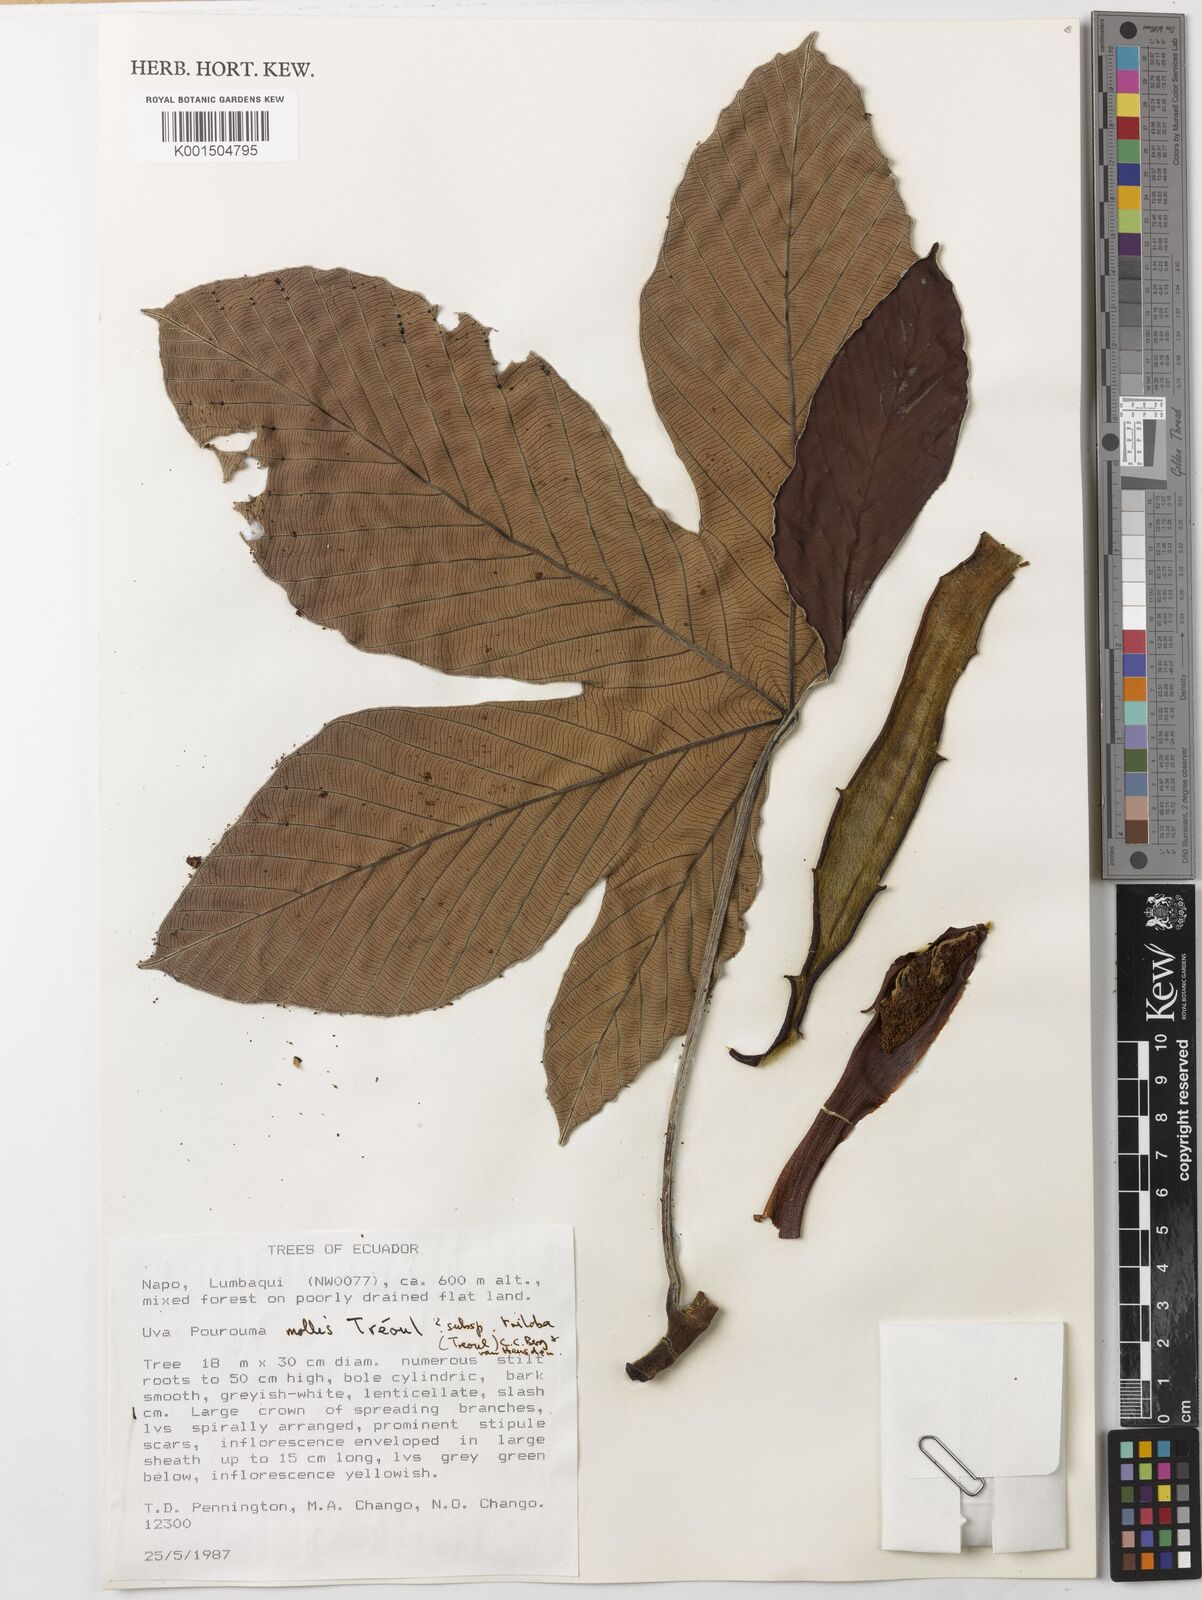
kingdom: Plantae
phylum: Tracheophyta
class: Magnoliopsida
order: Rosales
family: Urticaceae
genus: Pourouma
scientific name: Pourouma mollis
